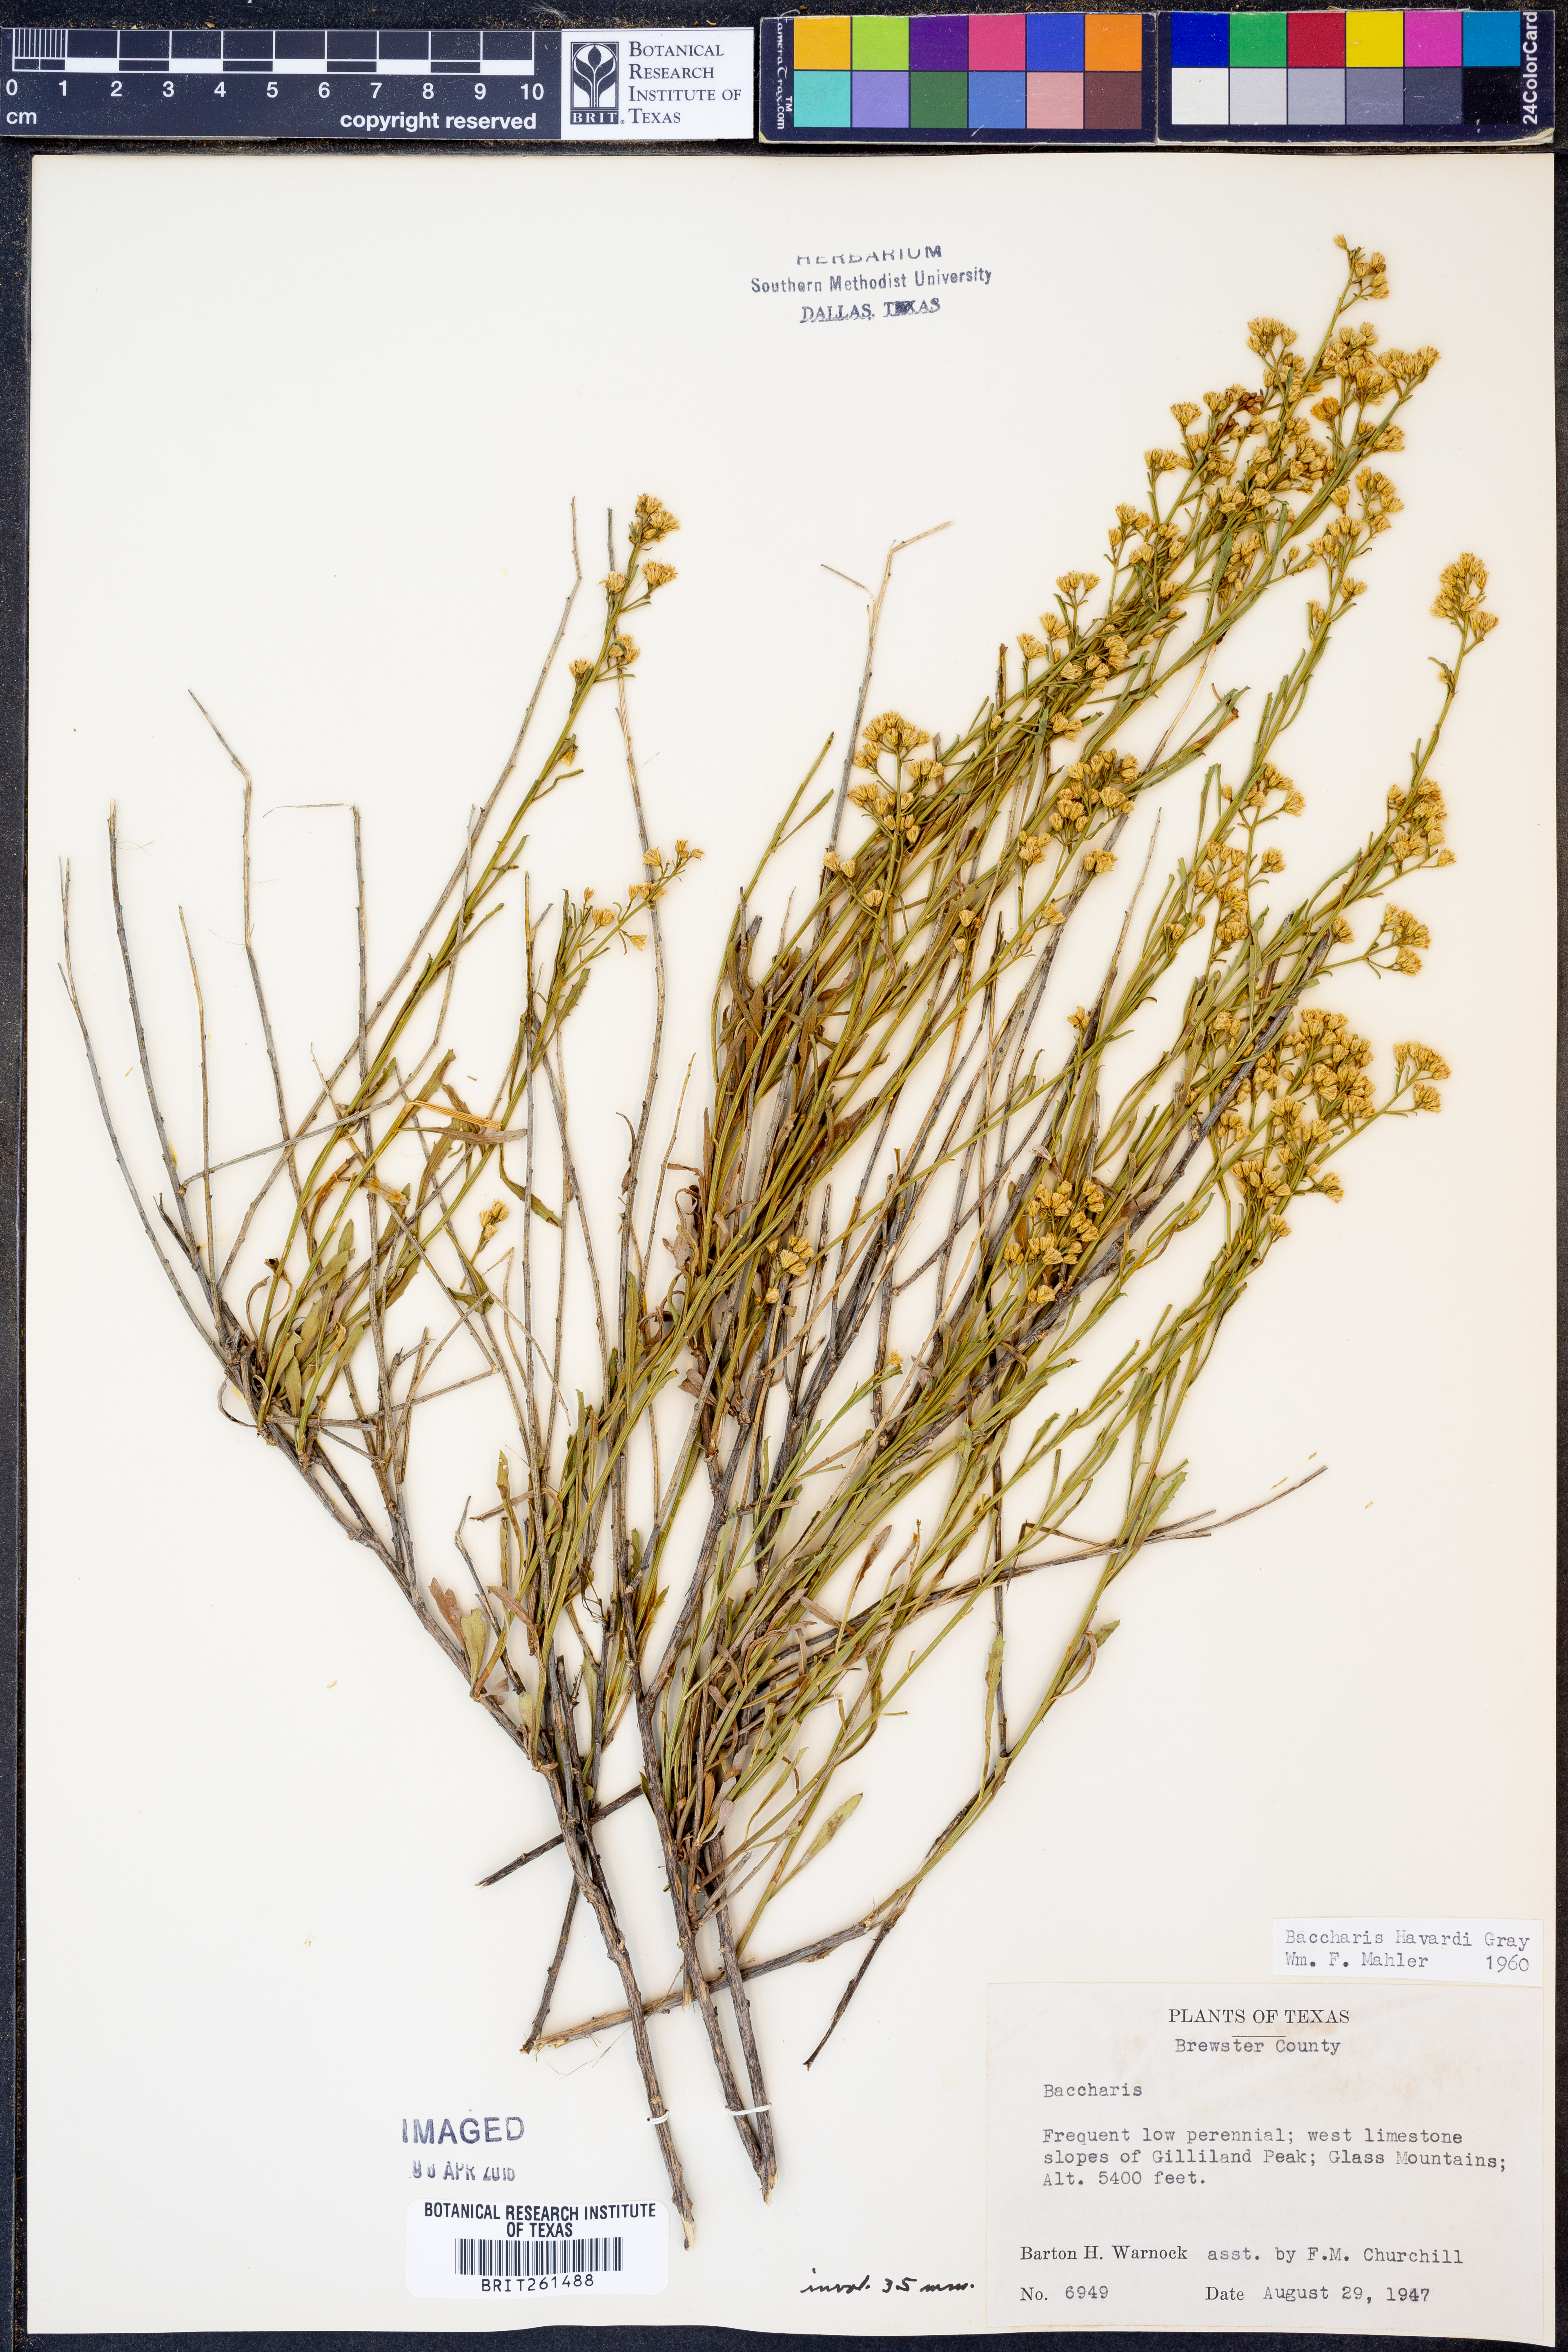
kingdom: Plantae
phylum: Tracheophyta
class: Magnoliopsida
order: Asterales
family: Asteraceae
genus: Baccharis
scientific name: Baccharis havardii
